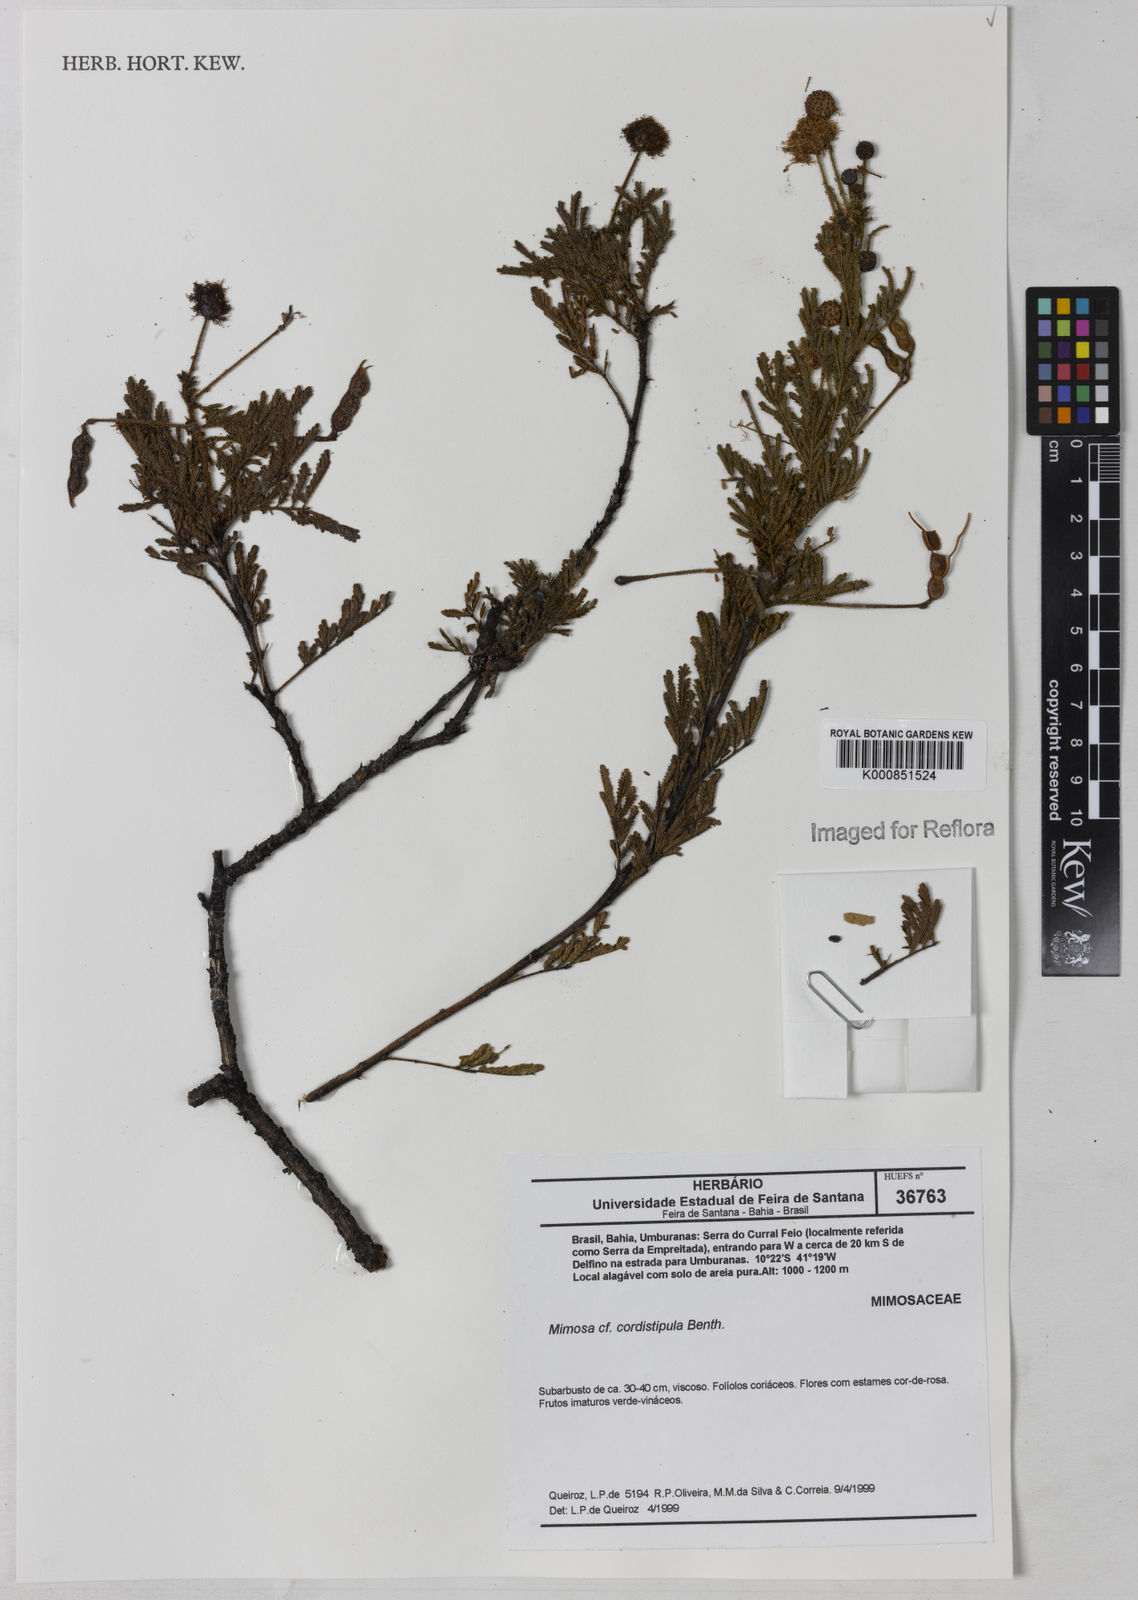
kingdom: Plantae
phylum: Tracheophyta
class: Magnoliopsida
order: Fabales
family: Fabaceae
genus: Mimosa
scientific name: Mimosa cordistipula
